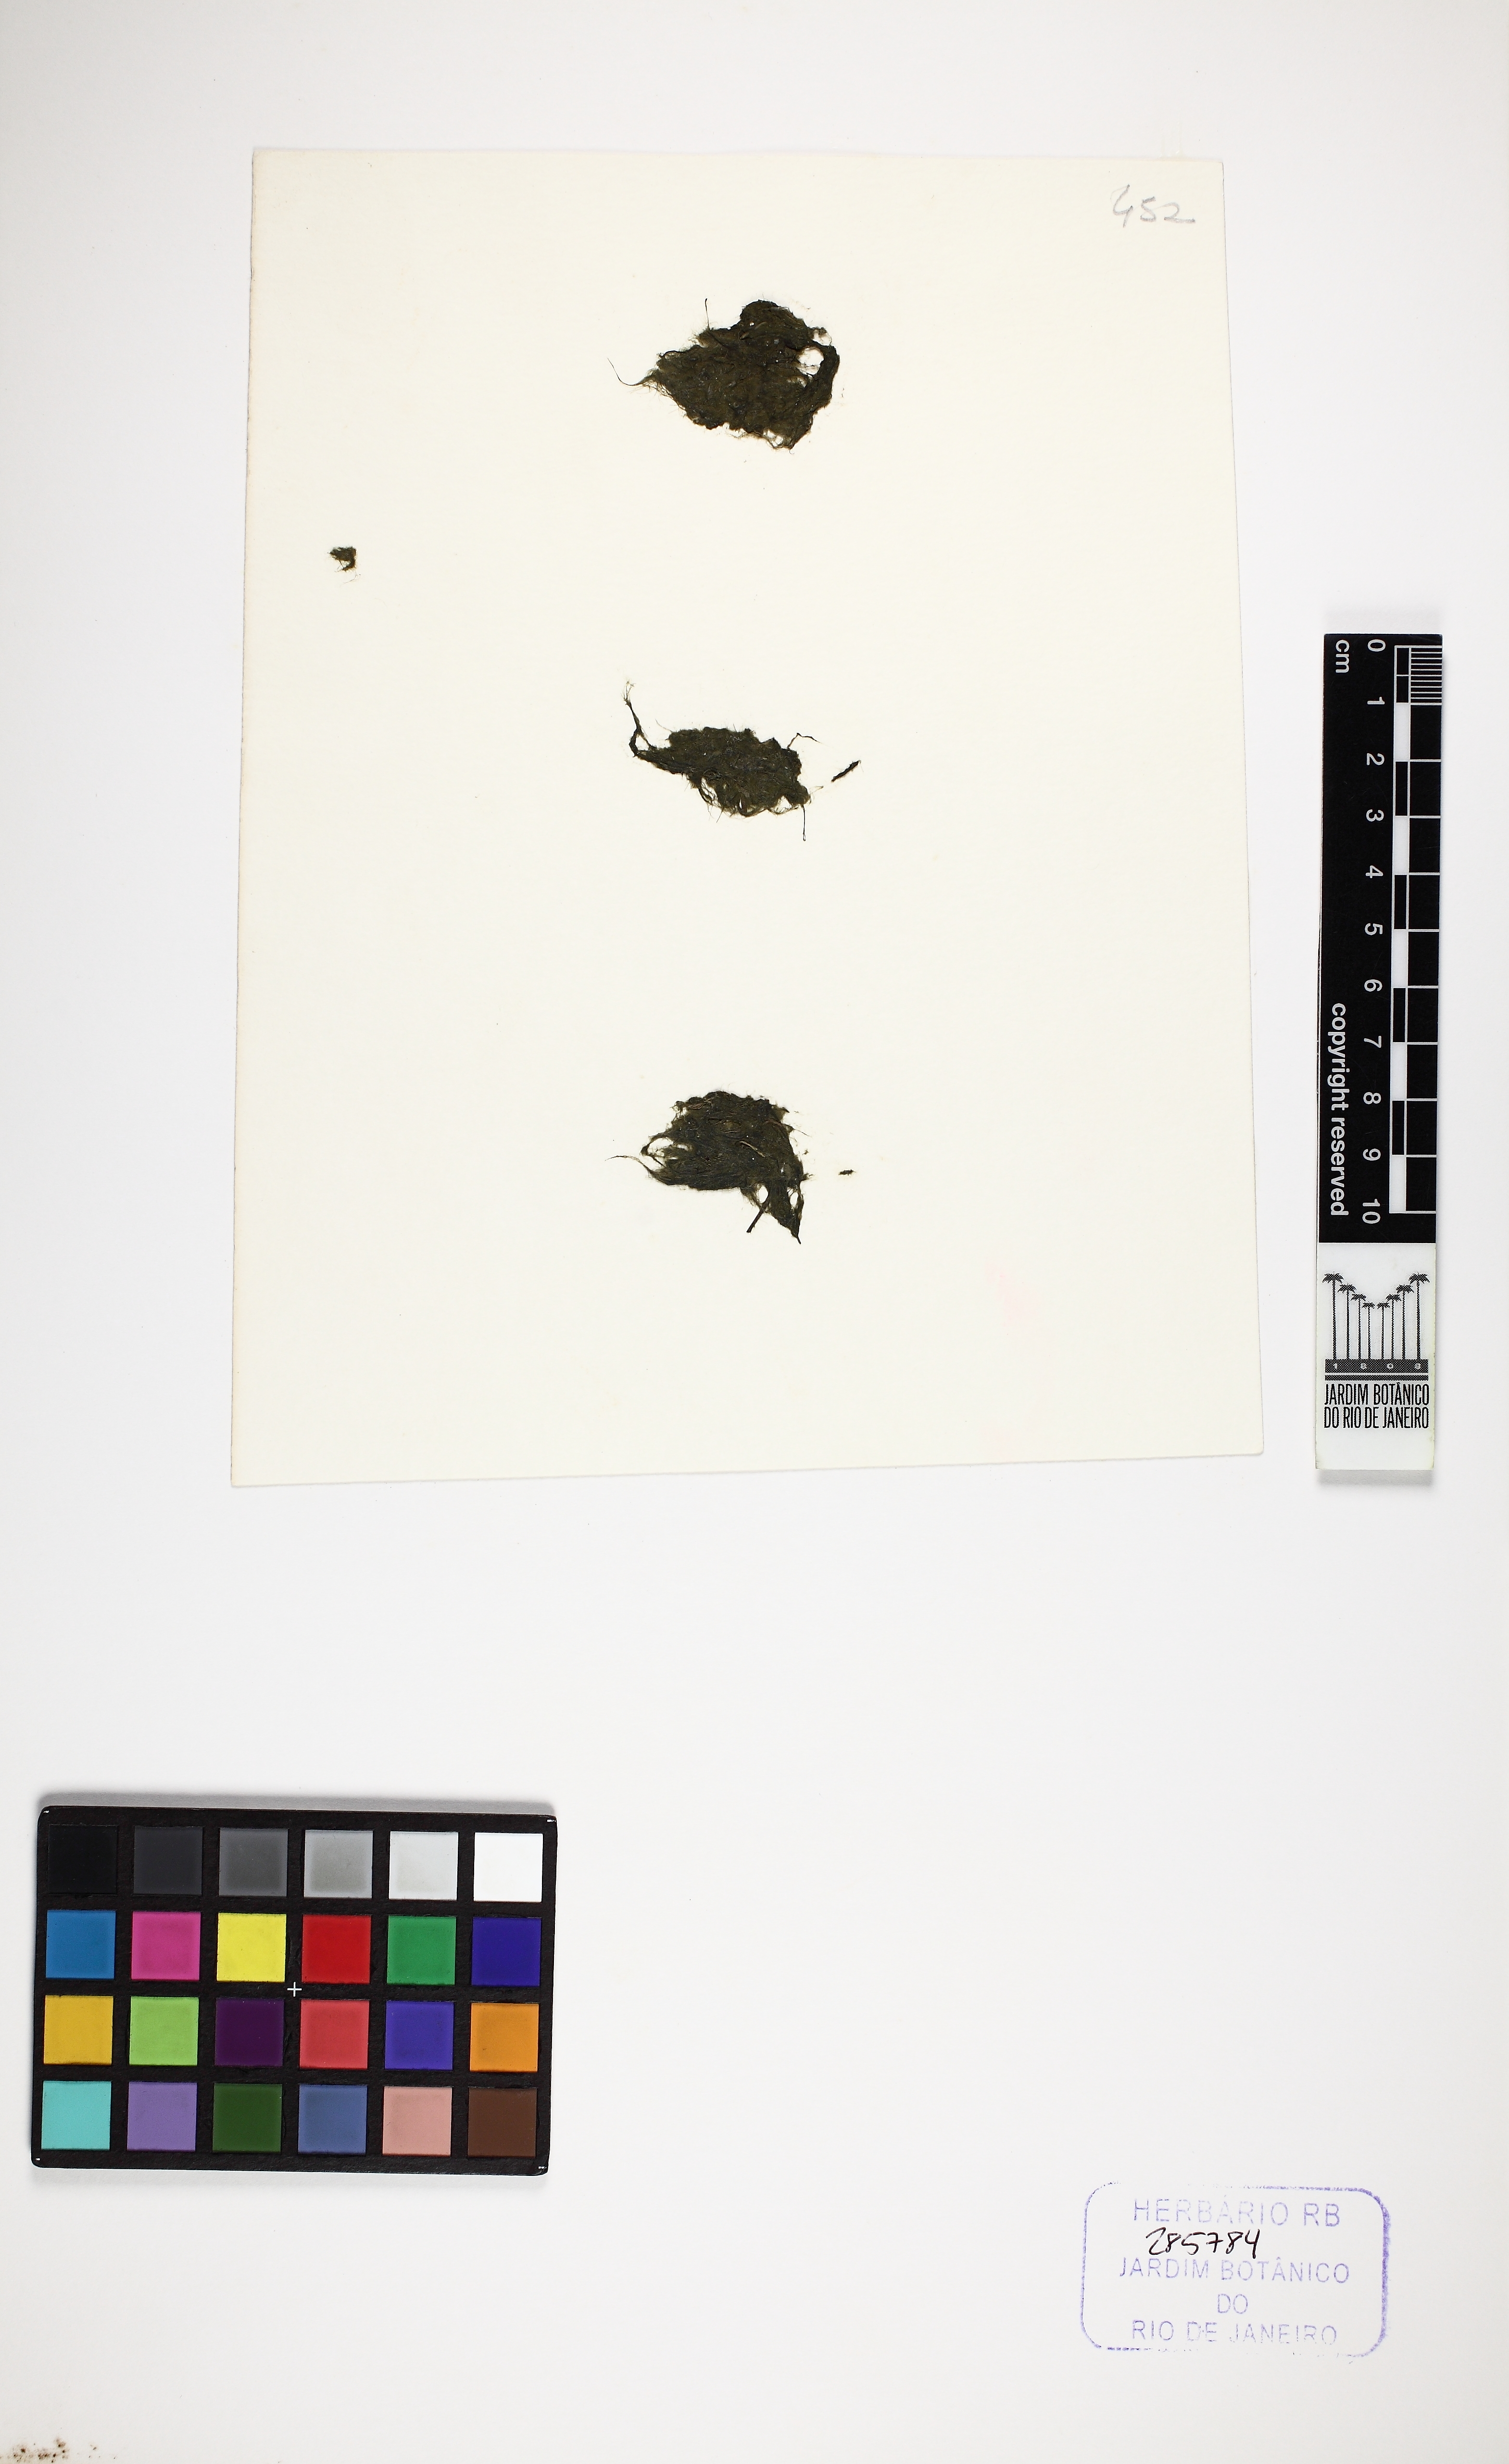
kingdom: Plantae
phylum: Chlorophyta
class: Ulvophyceae
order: Cladophorales
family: Cladophoraceae
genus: Rhizoclonium
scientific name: Rhizoclonium riparium
